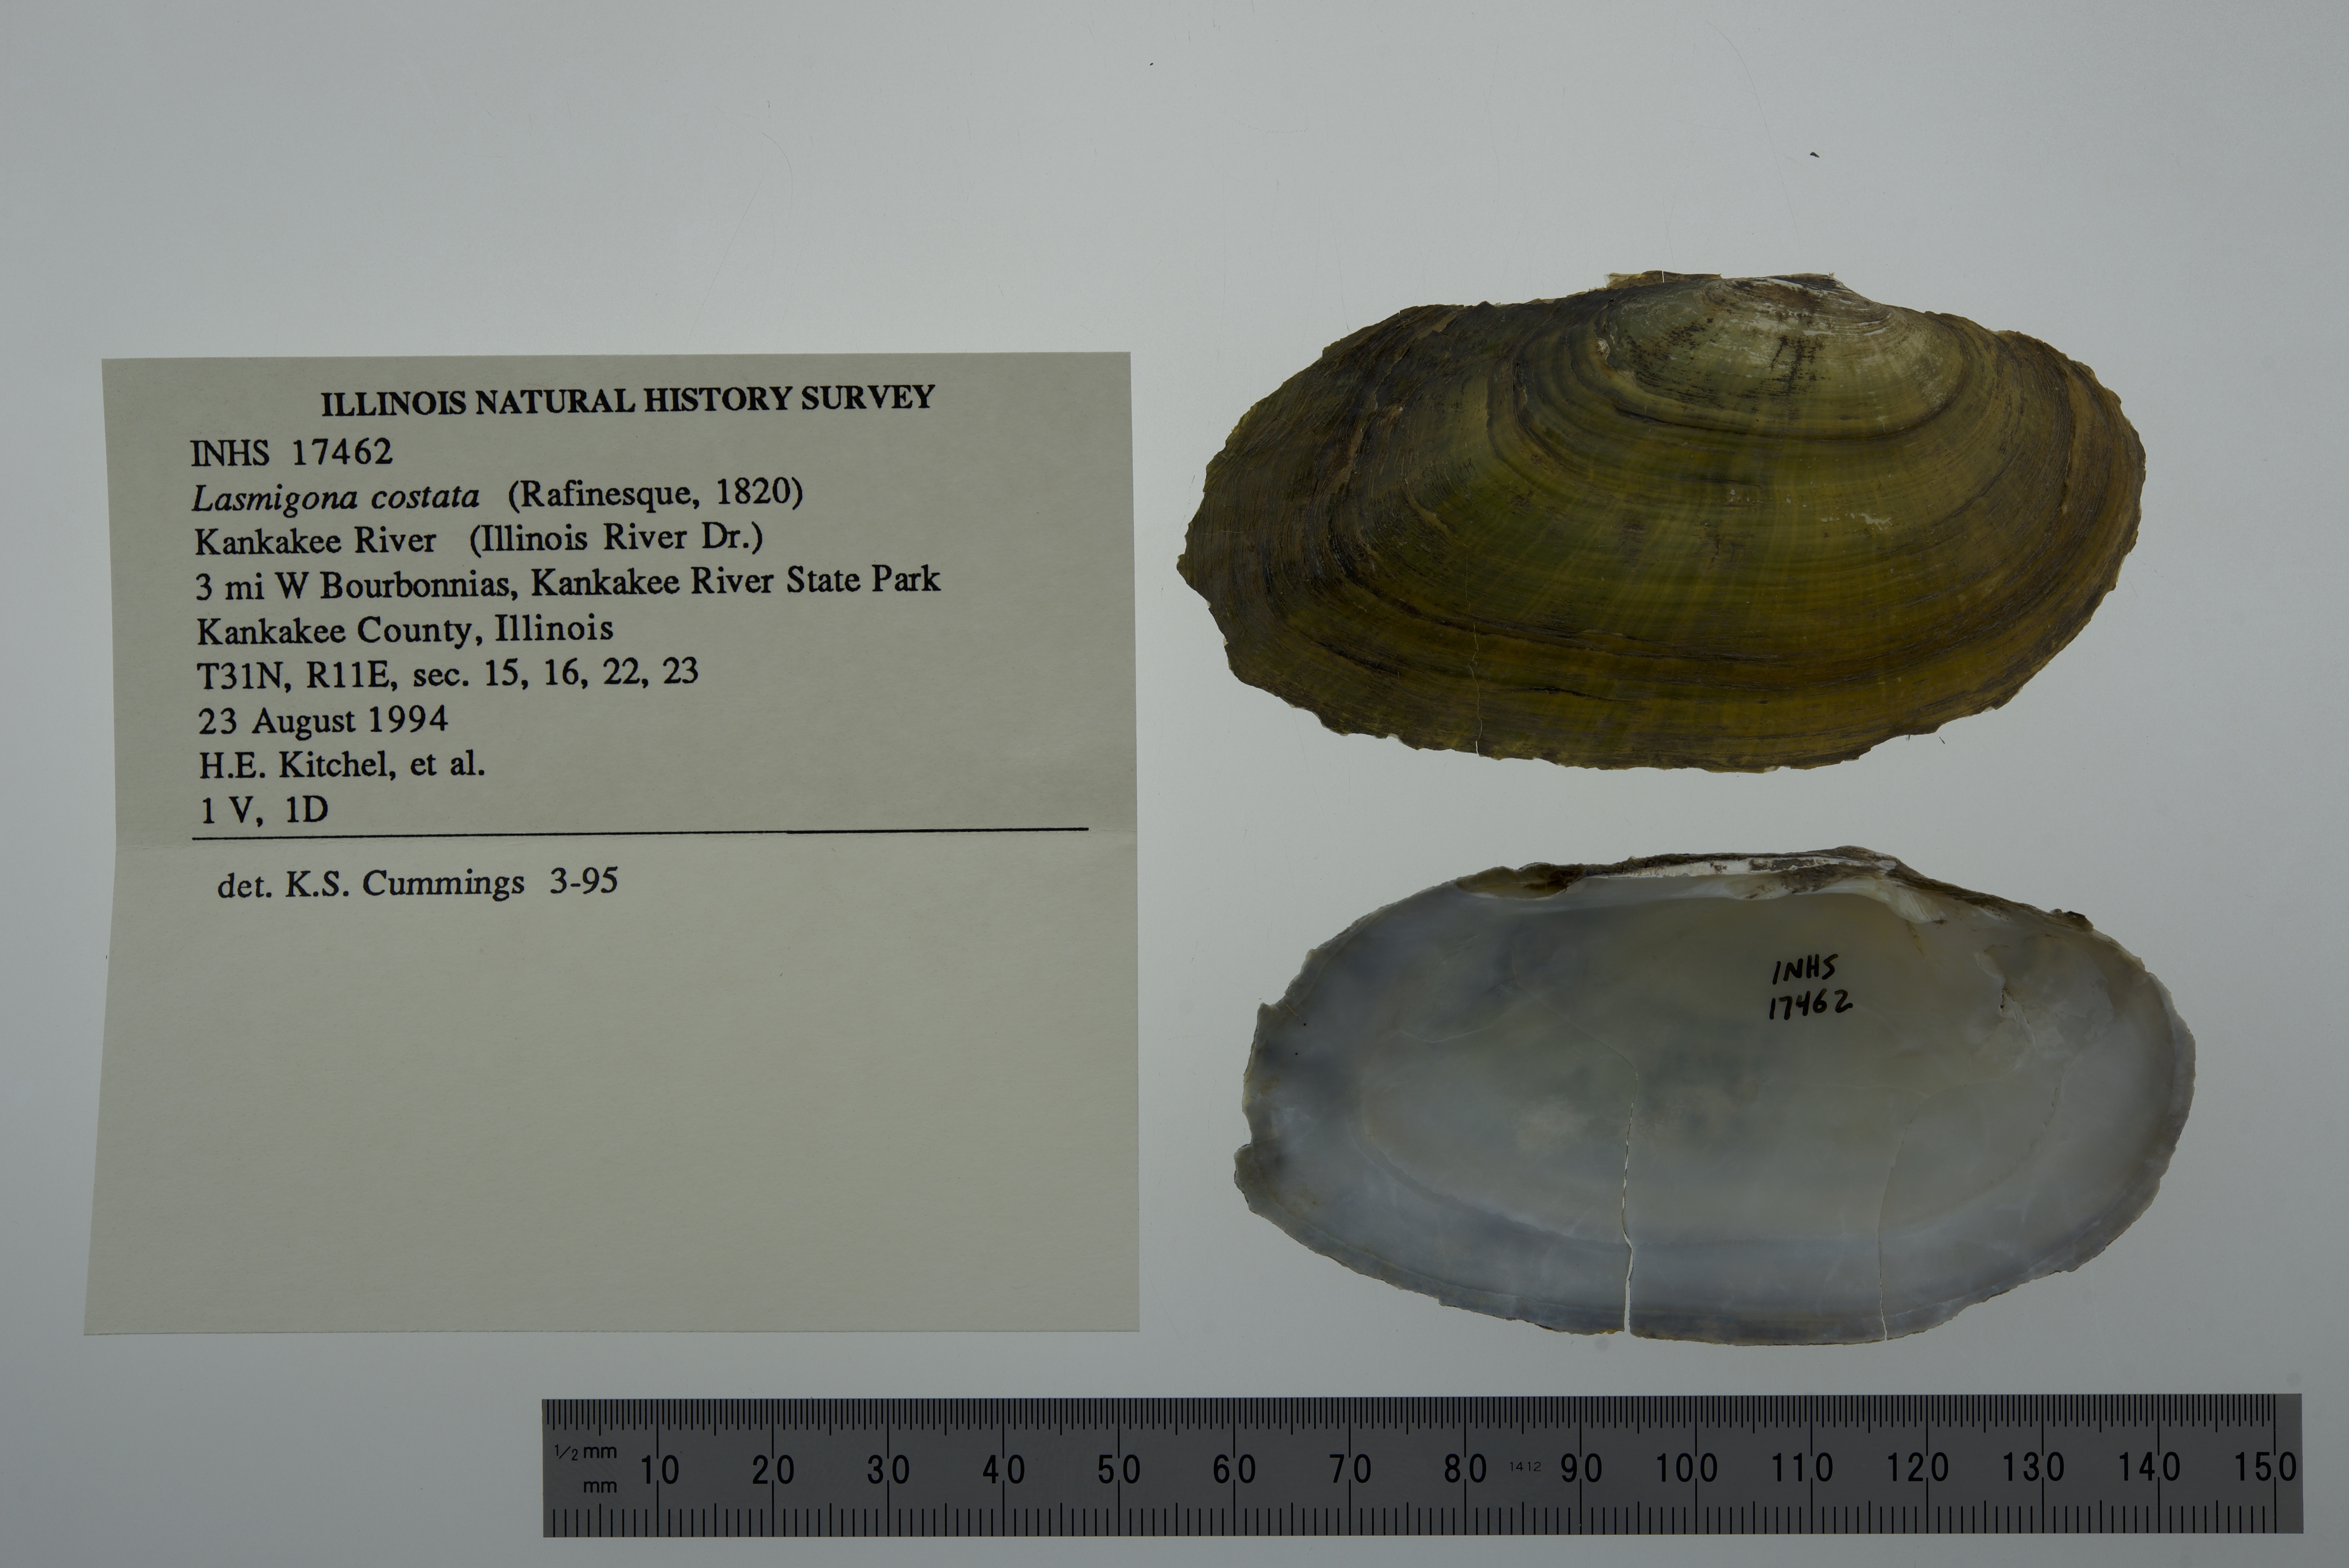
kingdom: Animalia
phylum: Mollusca
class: Bivalvia
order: Unionida
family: Unionidae
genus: Lasmigona
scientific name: Lasmigona costata
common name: Flutedshell
